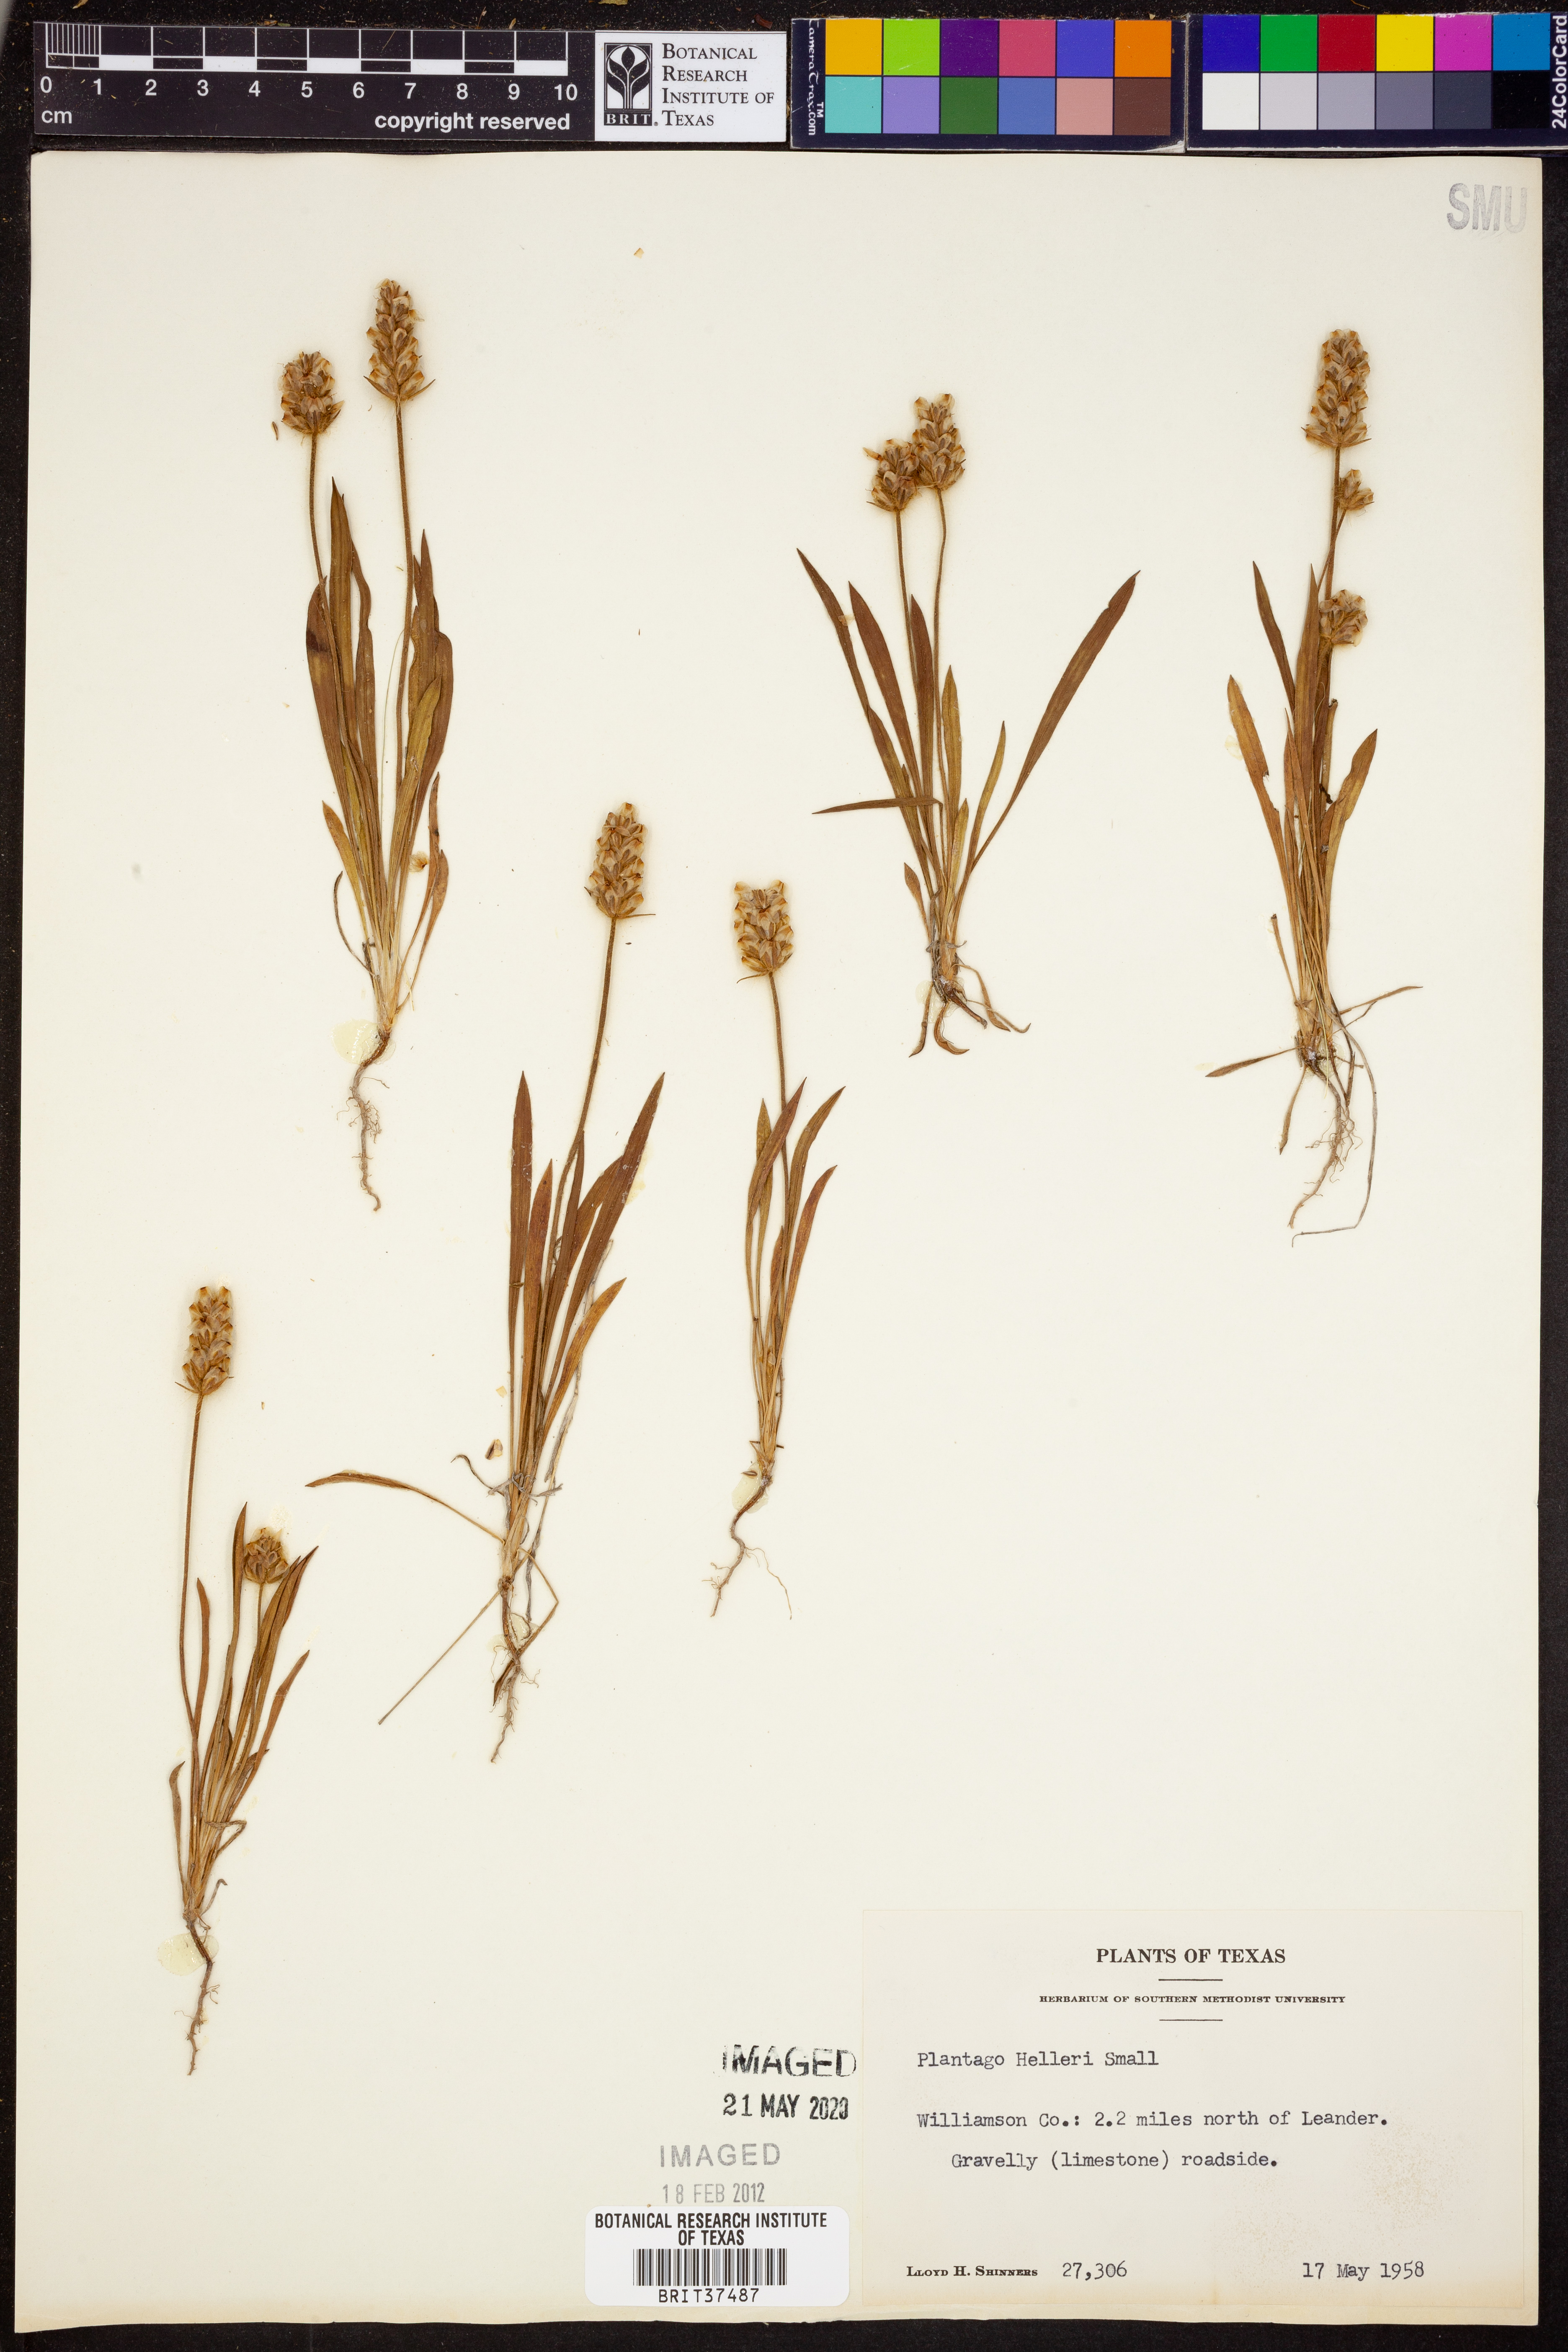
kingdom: Plantae
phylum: Tracheophyta
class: Magnoliopsida
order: Lamiales
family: Plantaginaceae
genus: Plantago
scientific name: Plantago helleri
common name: Heller's plantain
